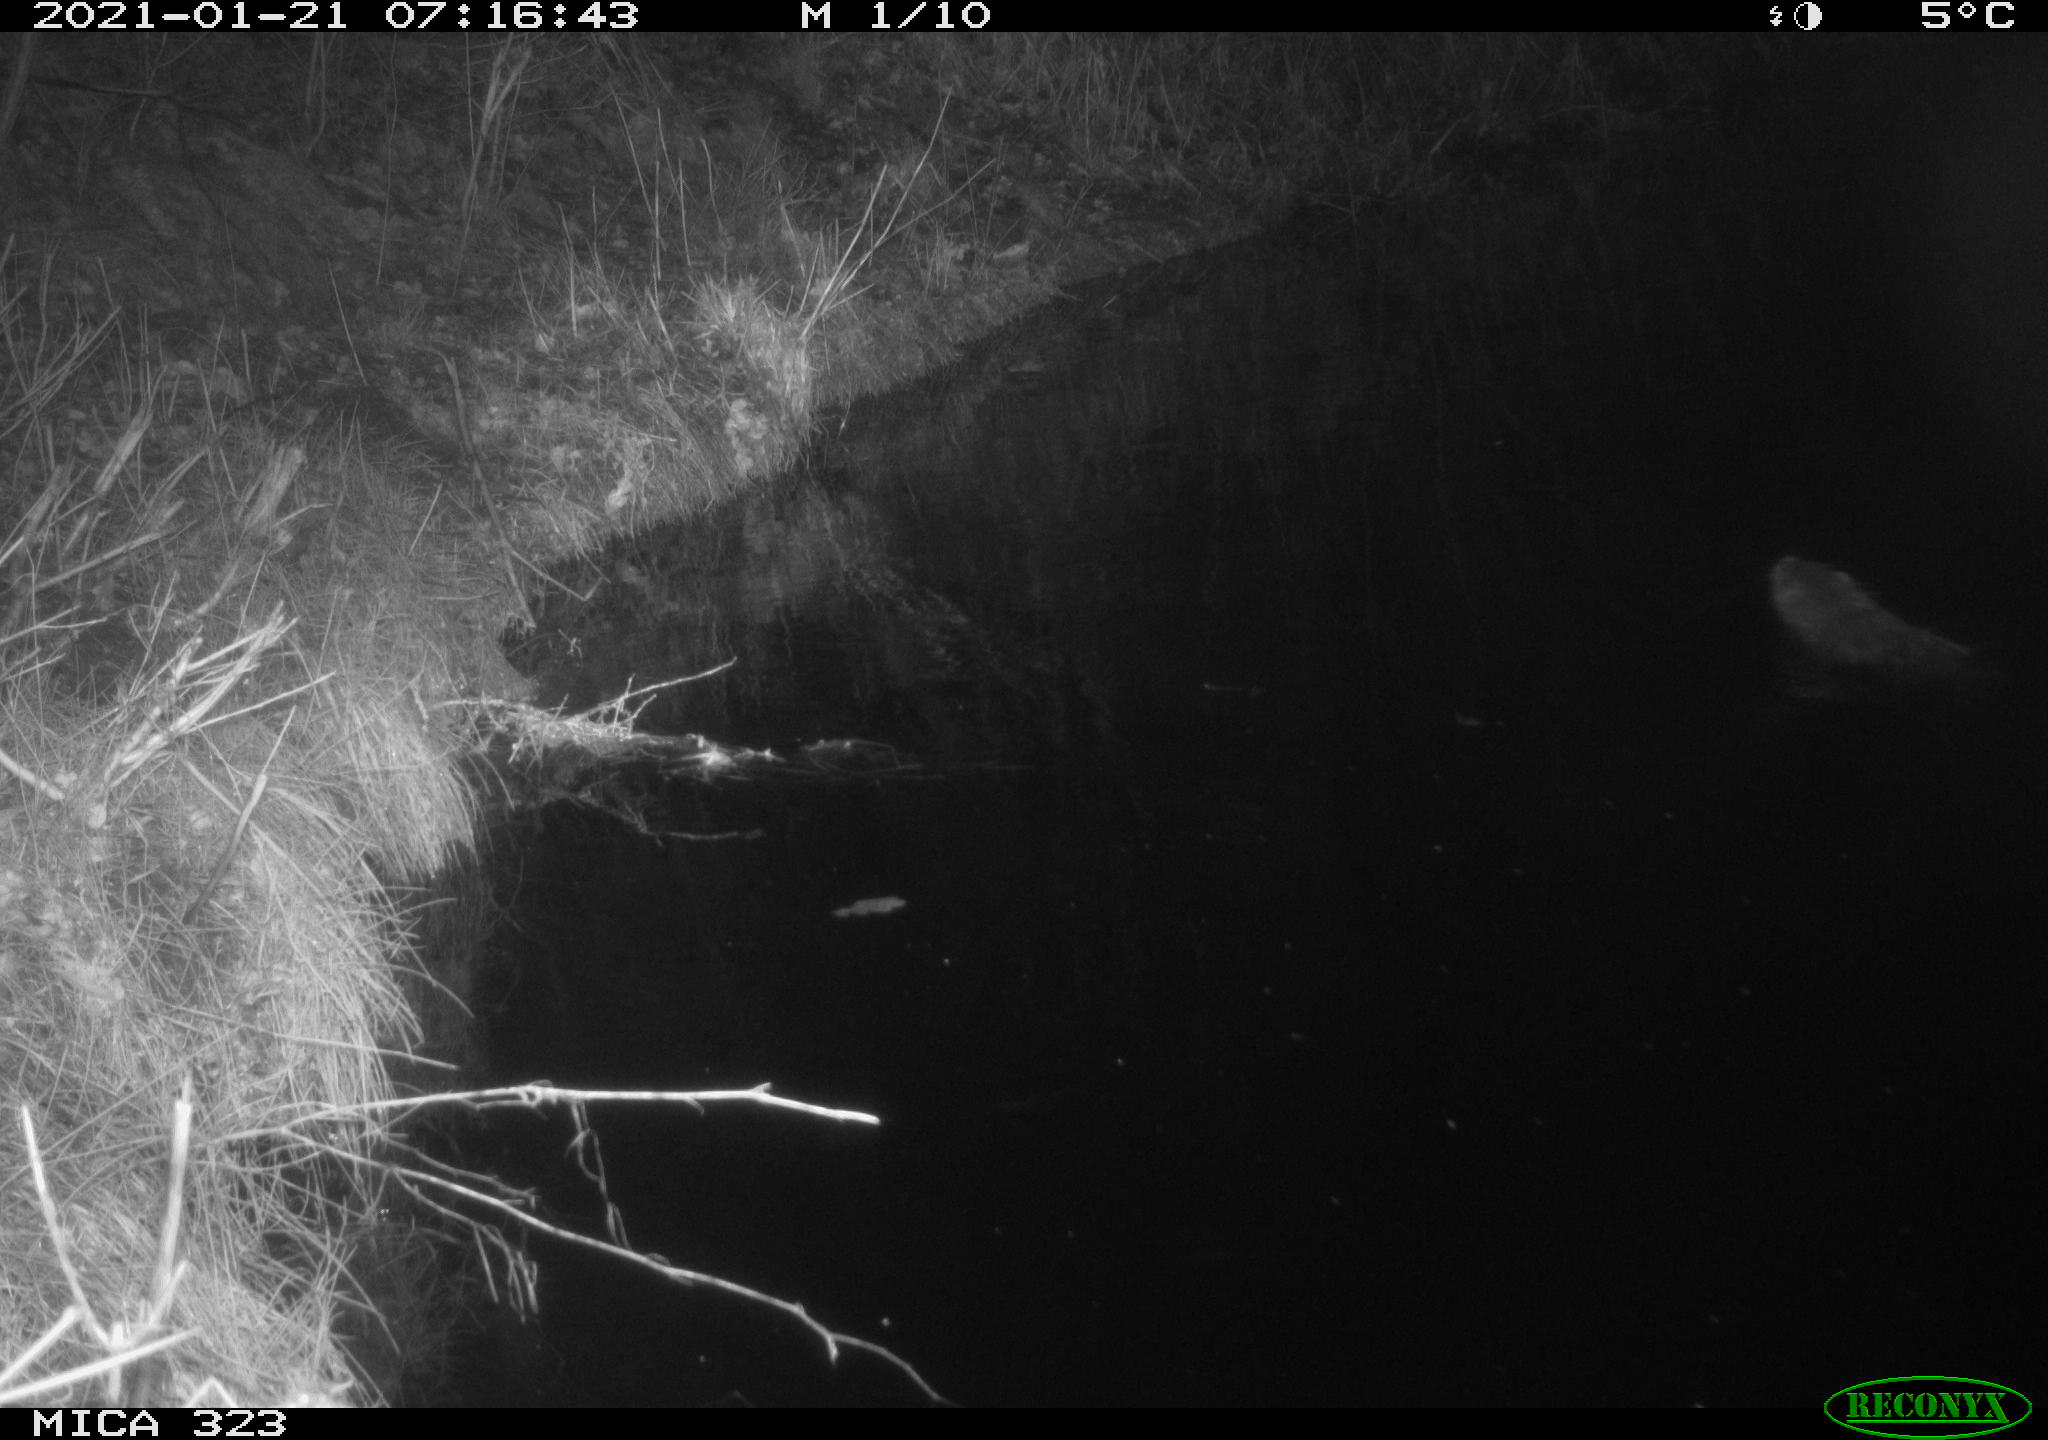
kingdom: Animalia
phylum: Chordata
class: Mammalia
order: Rodentia
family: Myocastoridae
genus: Myocastor
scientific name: Myocastor coypus
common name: Coypu
